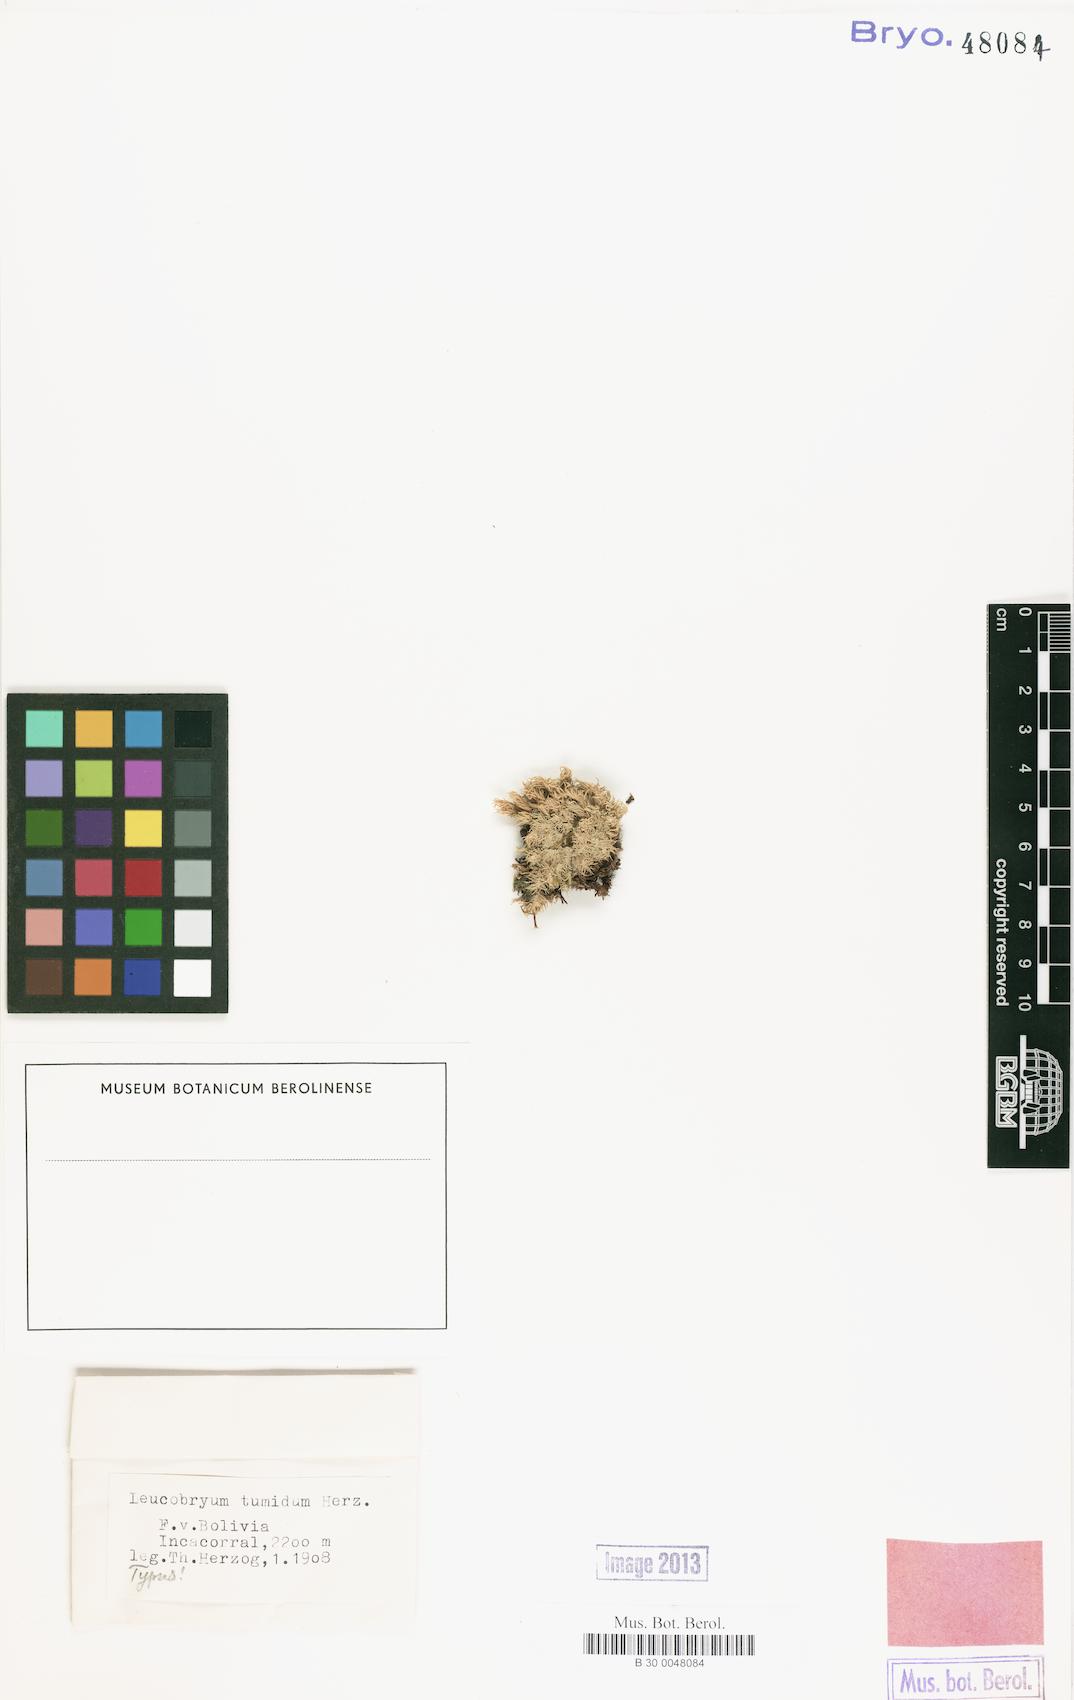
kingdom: Plantae
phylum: Bryophyta
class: Bryopsida
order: Dicranales
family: Leucobryaceae
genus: Leucobryum
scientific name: Leucobryum tumidum
